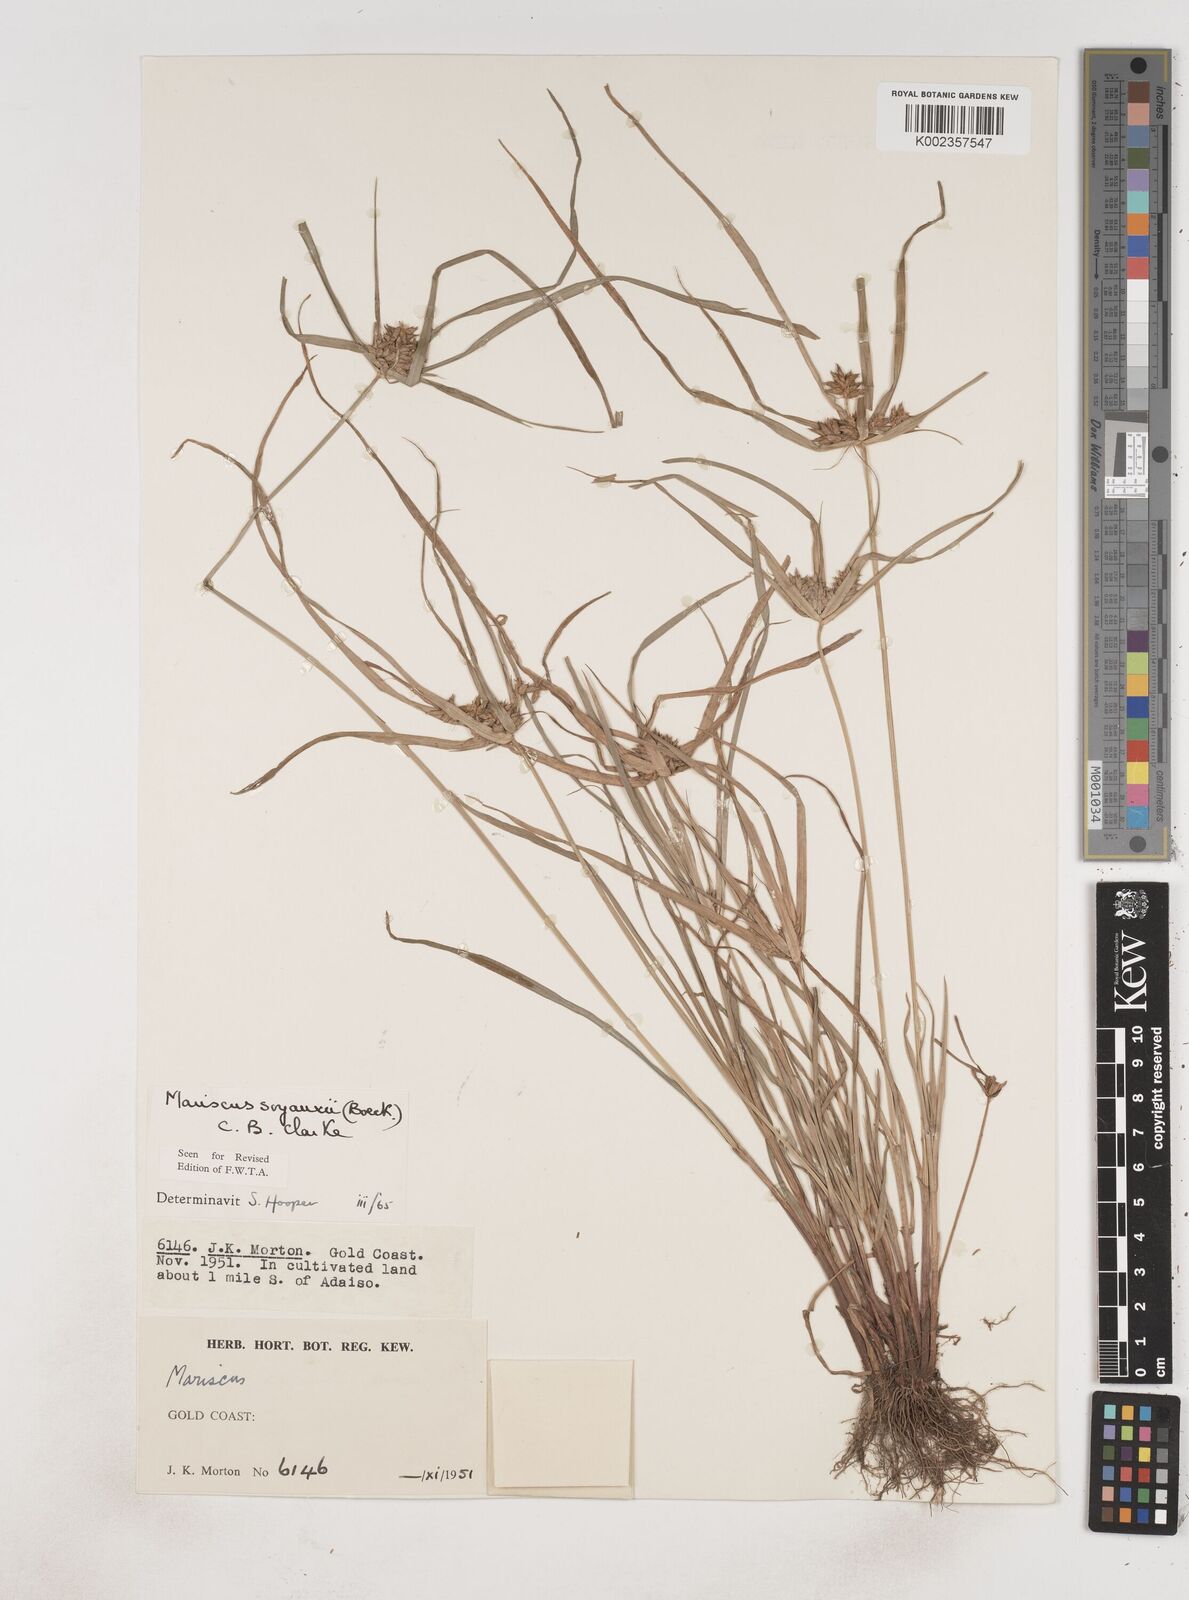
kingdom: Plantae
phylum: Tracheophyta
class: Liliopsida
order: Poales
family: Cyperaceae
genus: Cyperus
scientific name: Cyperus soyauxii
